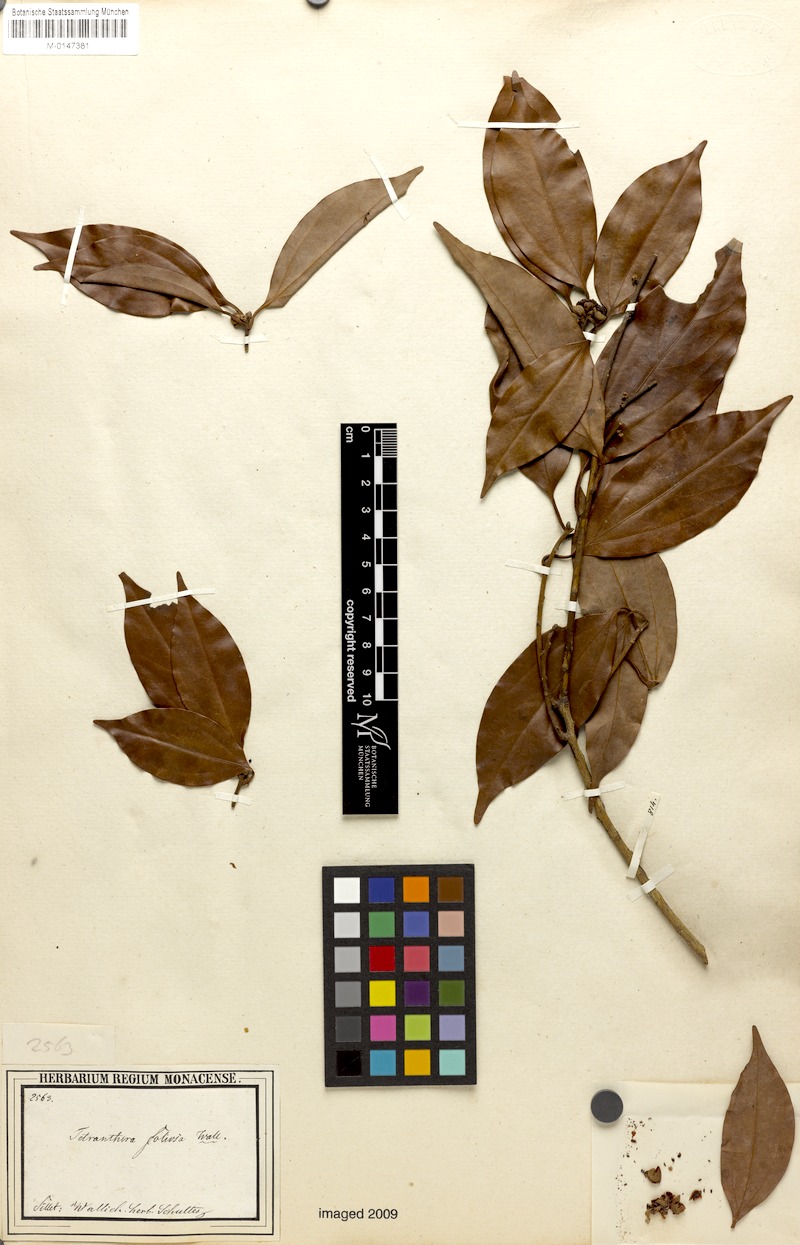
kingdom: Plantae
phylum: Tracheophyta
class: Magnoliopsida
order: Laurales
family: Lauraceae
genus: Neolitsea
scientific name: Neolitsea umbrosa
